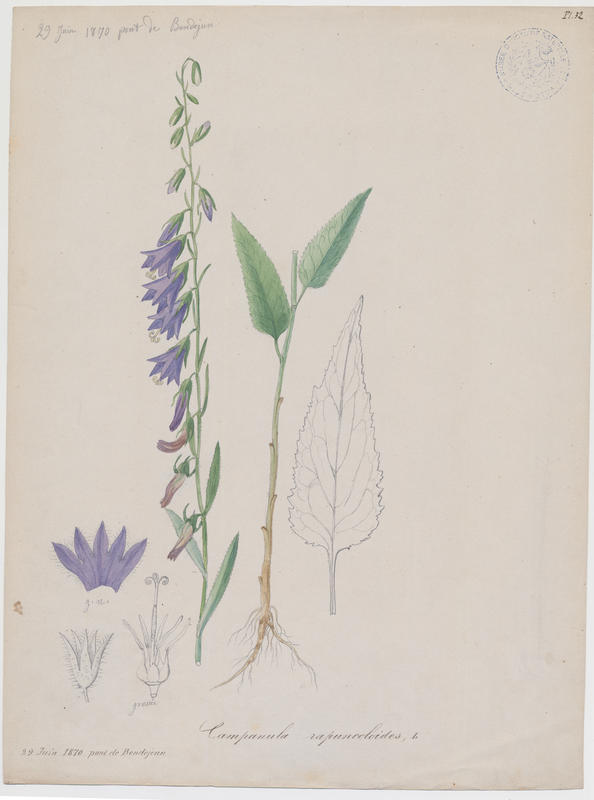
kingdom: Plantae
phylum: Tracheophyta
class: Magnoliopsida
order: Asterales
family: Campanulaceae
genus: Campanula
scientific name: Campanula rapunculoides
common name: Creeping bellflower
